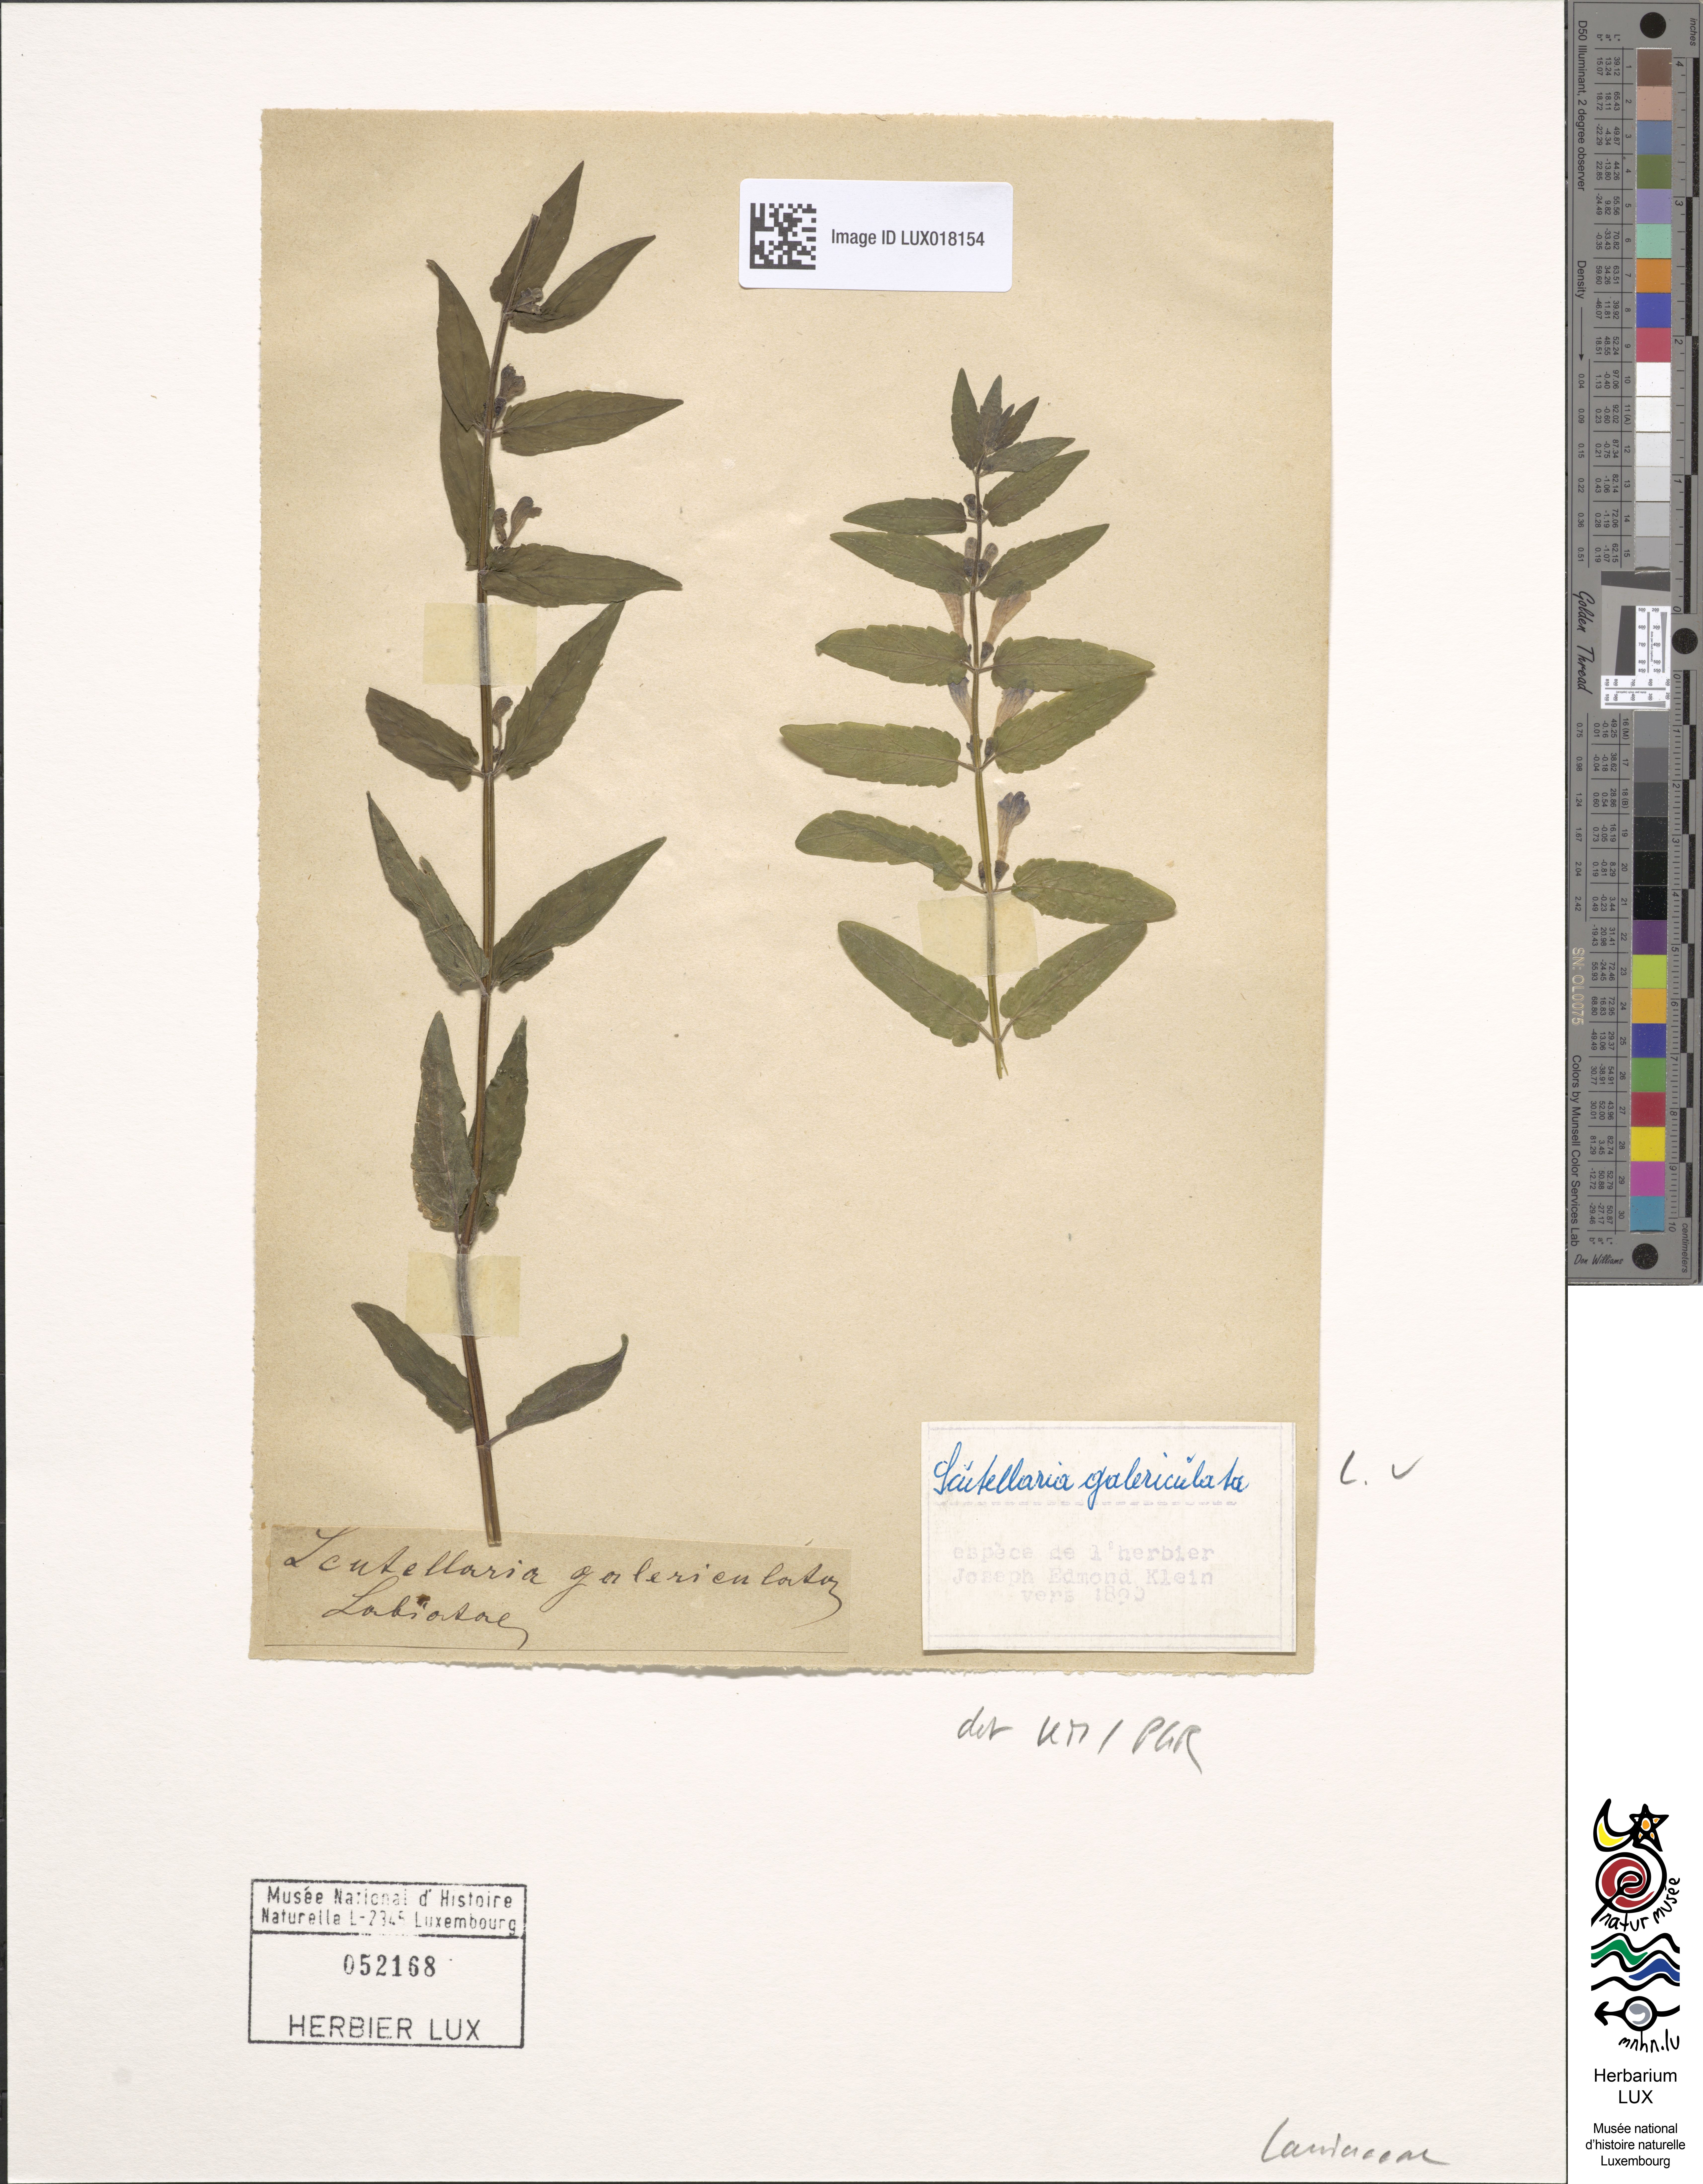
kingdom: Plantae
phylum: Tracheophyta
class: Magnoliopsida
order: Lamiales
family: Lamiaceae
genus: Scutellaria
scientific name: Scutellaria galericulata
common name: Skullcap
